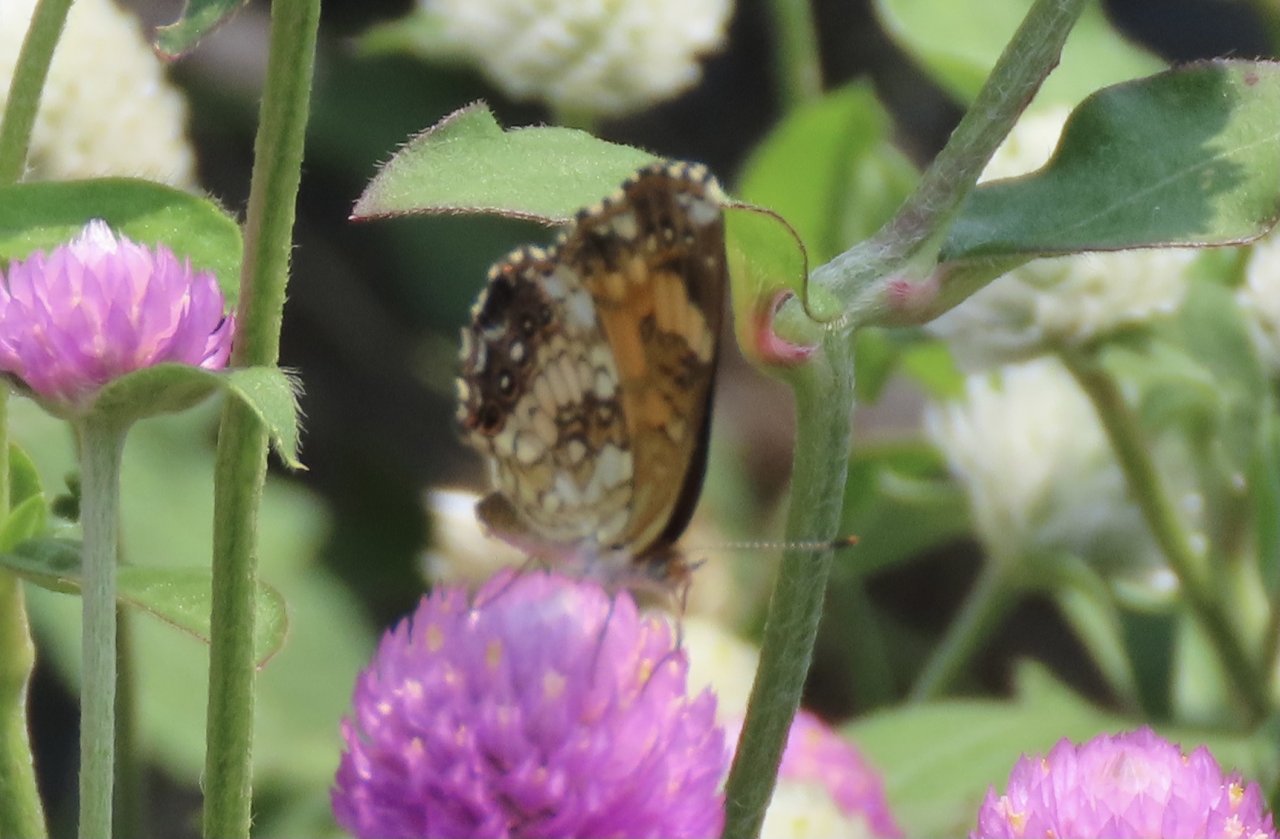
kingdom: Animalia
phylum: Arthropoda
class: Insecta
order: Lepidoptera
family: Nymphalidae
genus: Chlosyne
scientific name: Chlosyne nycteis
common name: Silvery Checkerspot
